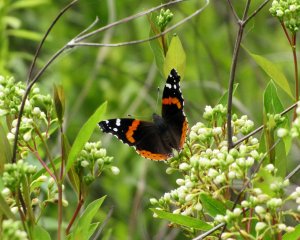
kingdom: Animalia
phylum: Arthropoda
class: Insecta
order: Lepidoptera
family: Nymphalidae
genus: Vanessa
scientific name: Vanessa atalanta
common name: Red Admiral
